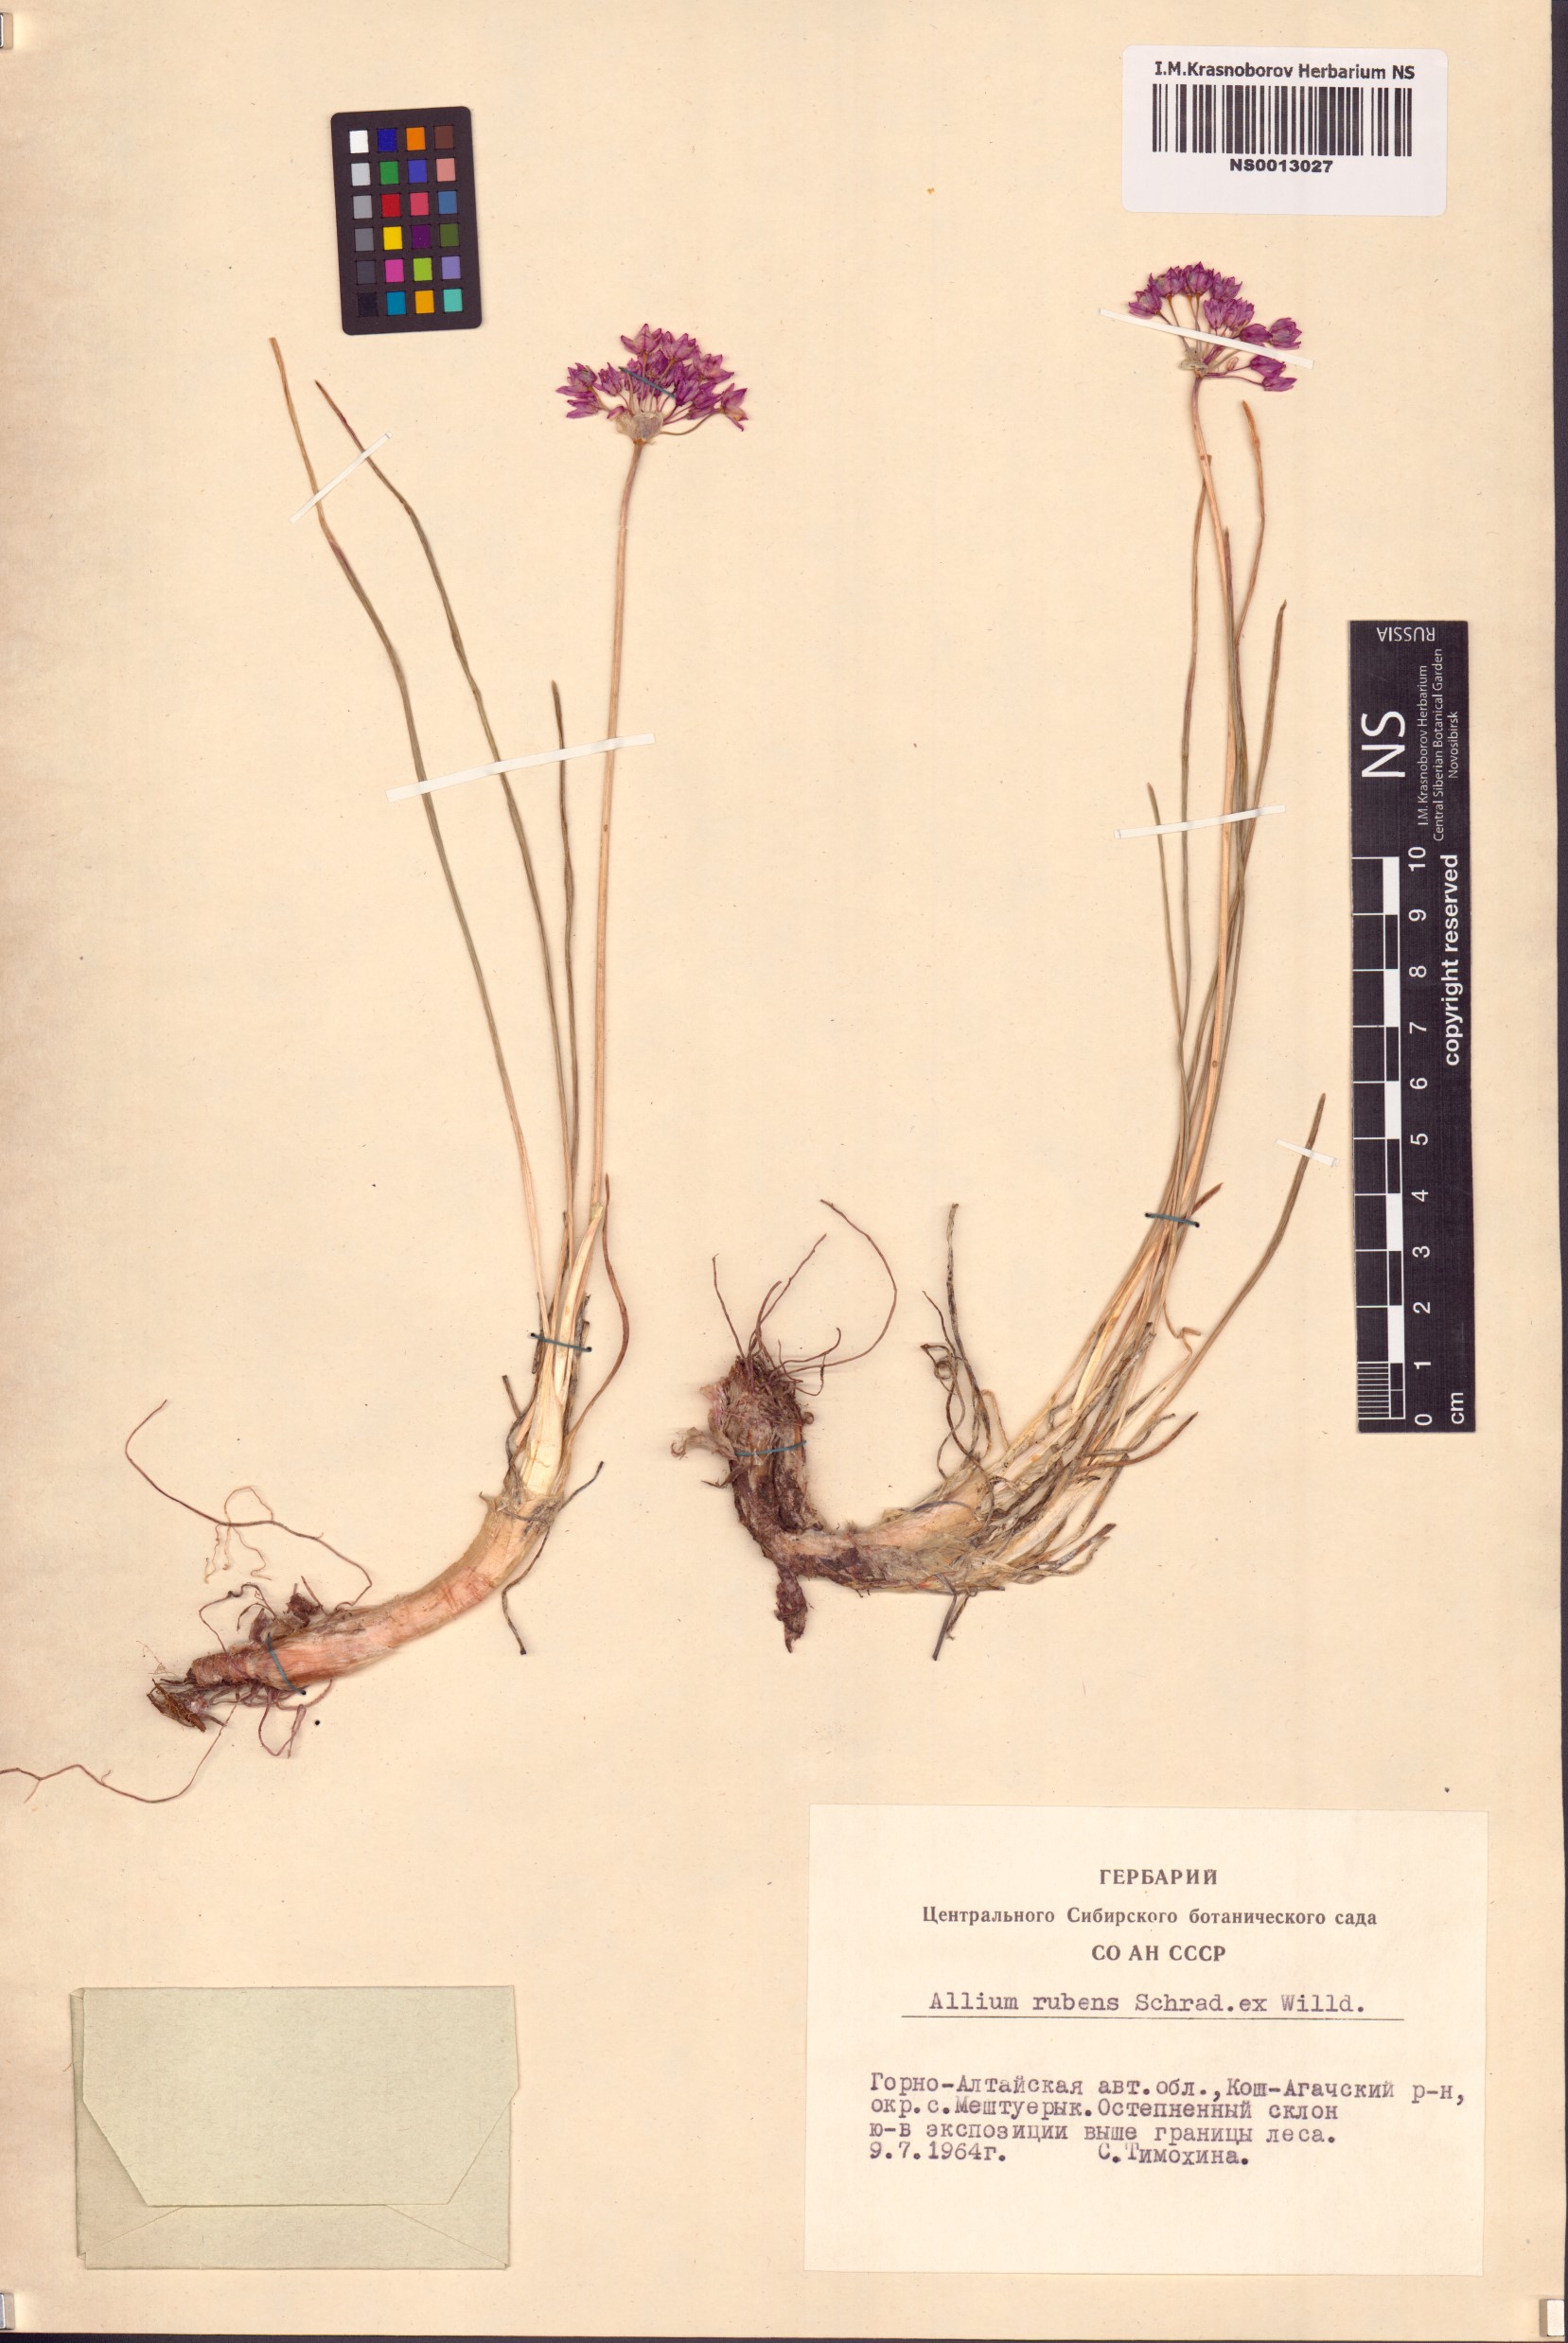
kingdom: Plantae
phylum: Tracheophyta
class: Liliopsida
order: Asparagales
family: Amaryllidaceae
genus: Allium
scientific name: Allium rubens
